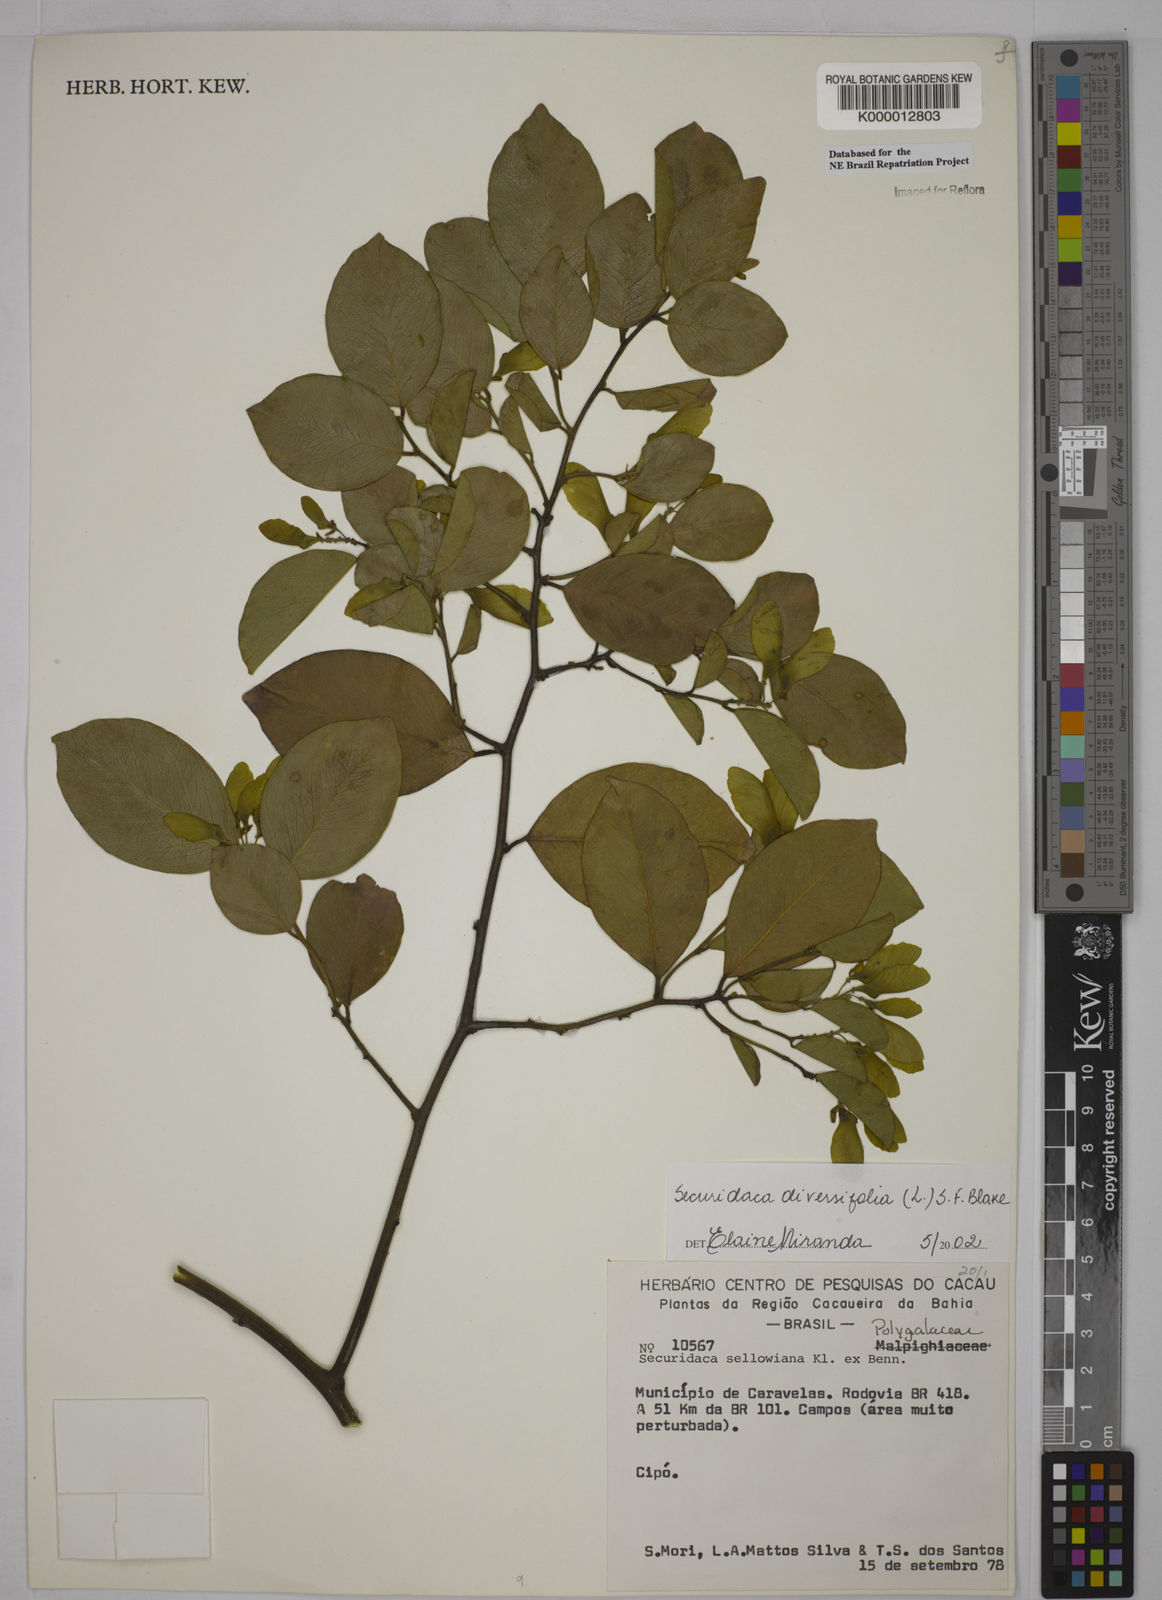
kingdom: Plantae
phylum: Tracheophyta
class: Magnoliopsida
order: Fabales
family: Polygalaceae
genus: Securidaca
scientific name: Securidaca diversifolia
